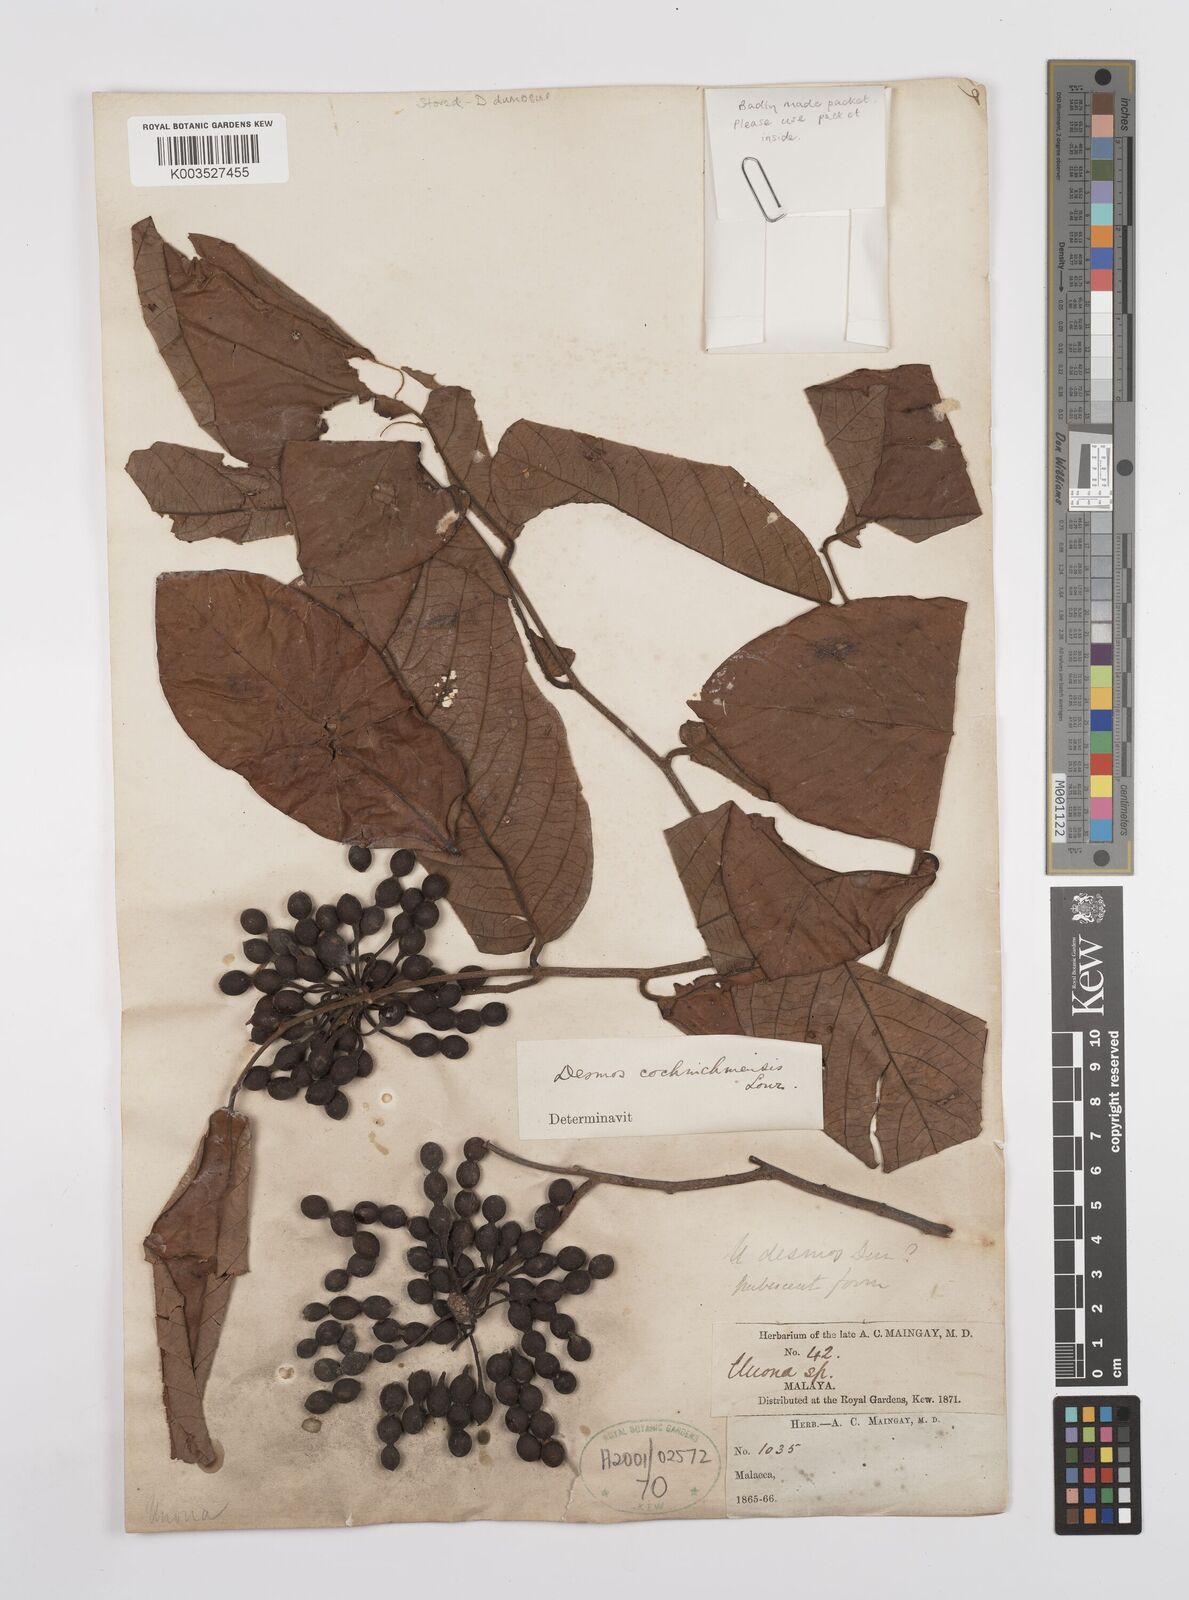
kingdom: Plantae
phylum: Tracheophyta
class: Magnoliopsida
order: Magnoliales
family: Annonaceae
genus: Desmos
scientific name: Desmos dumosus
